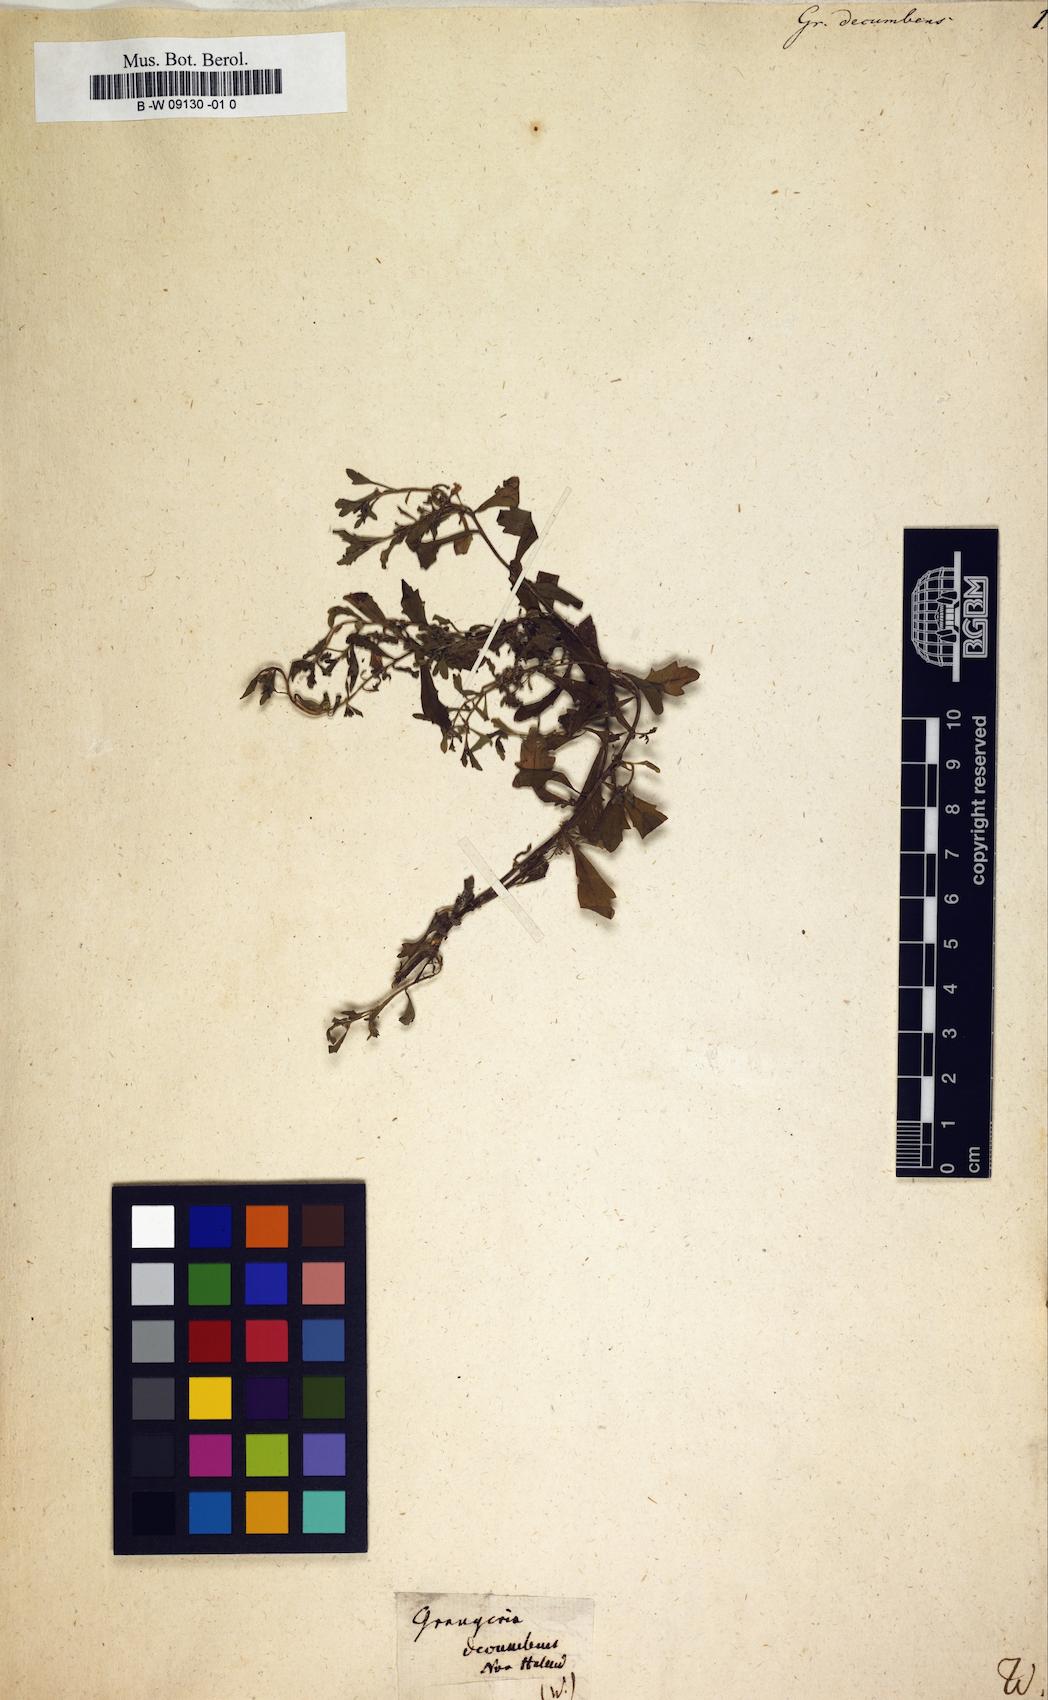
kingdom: Plantae
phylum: Tracheophyta
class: Magnoliopsida
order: Malpighiales
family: Chrysobalanaceae
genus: Grangeria
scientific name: Grangeria
